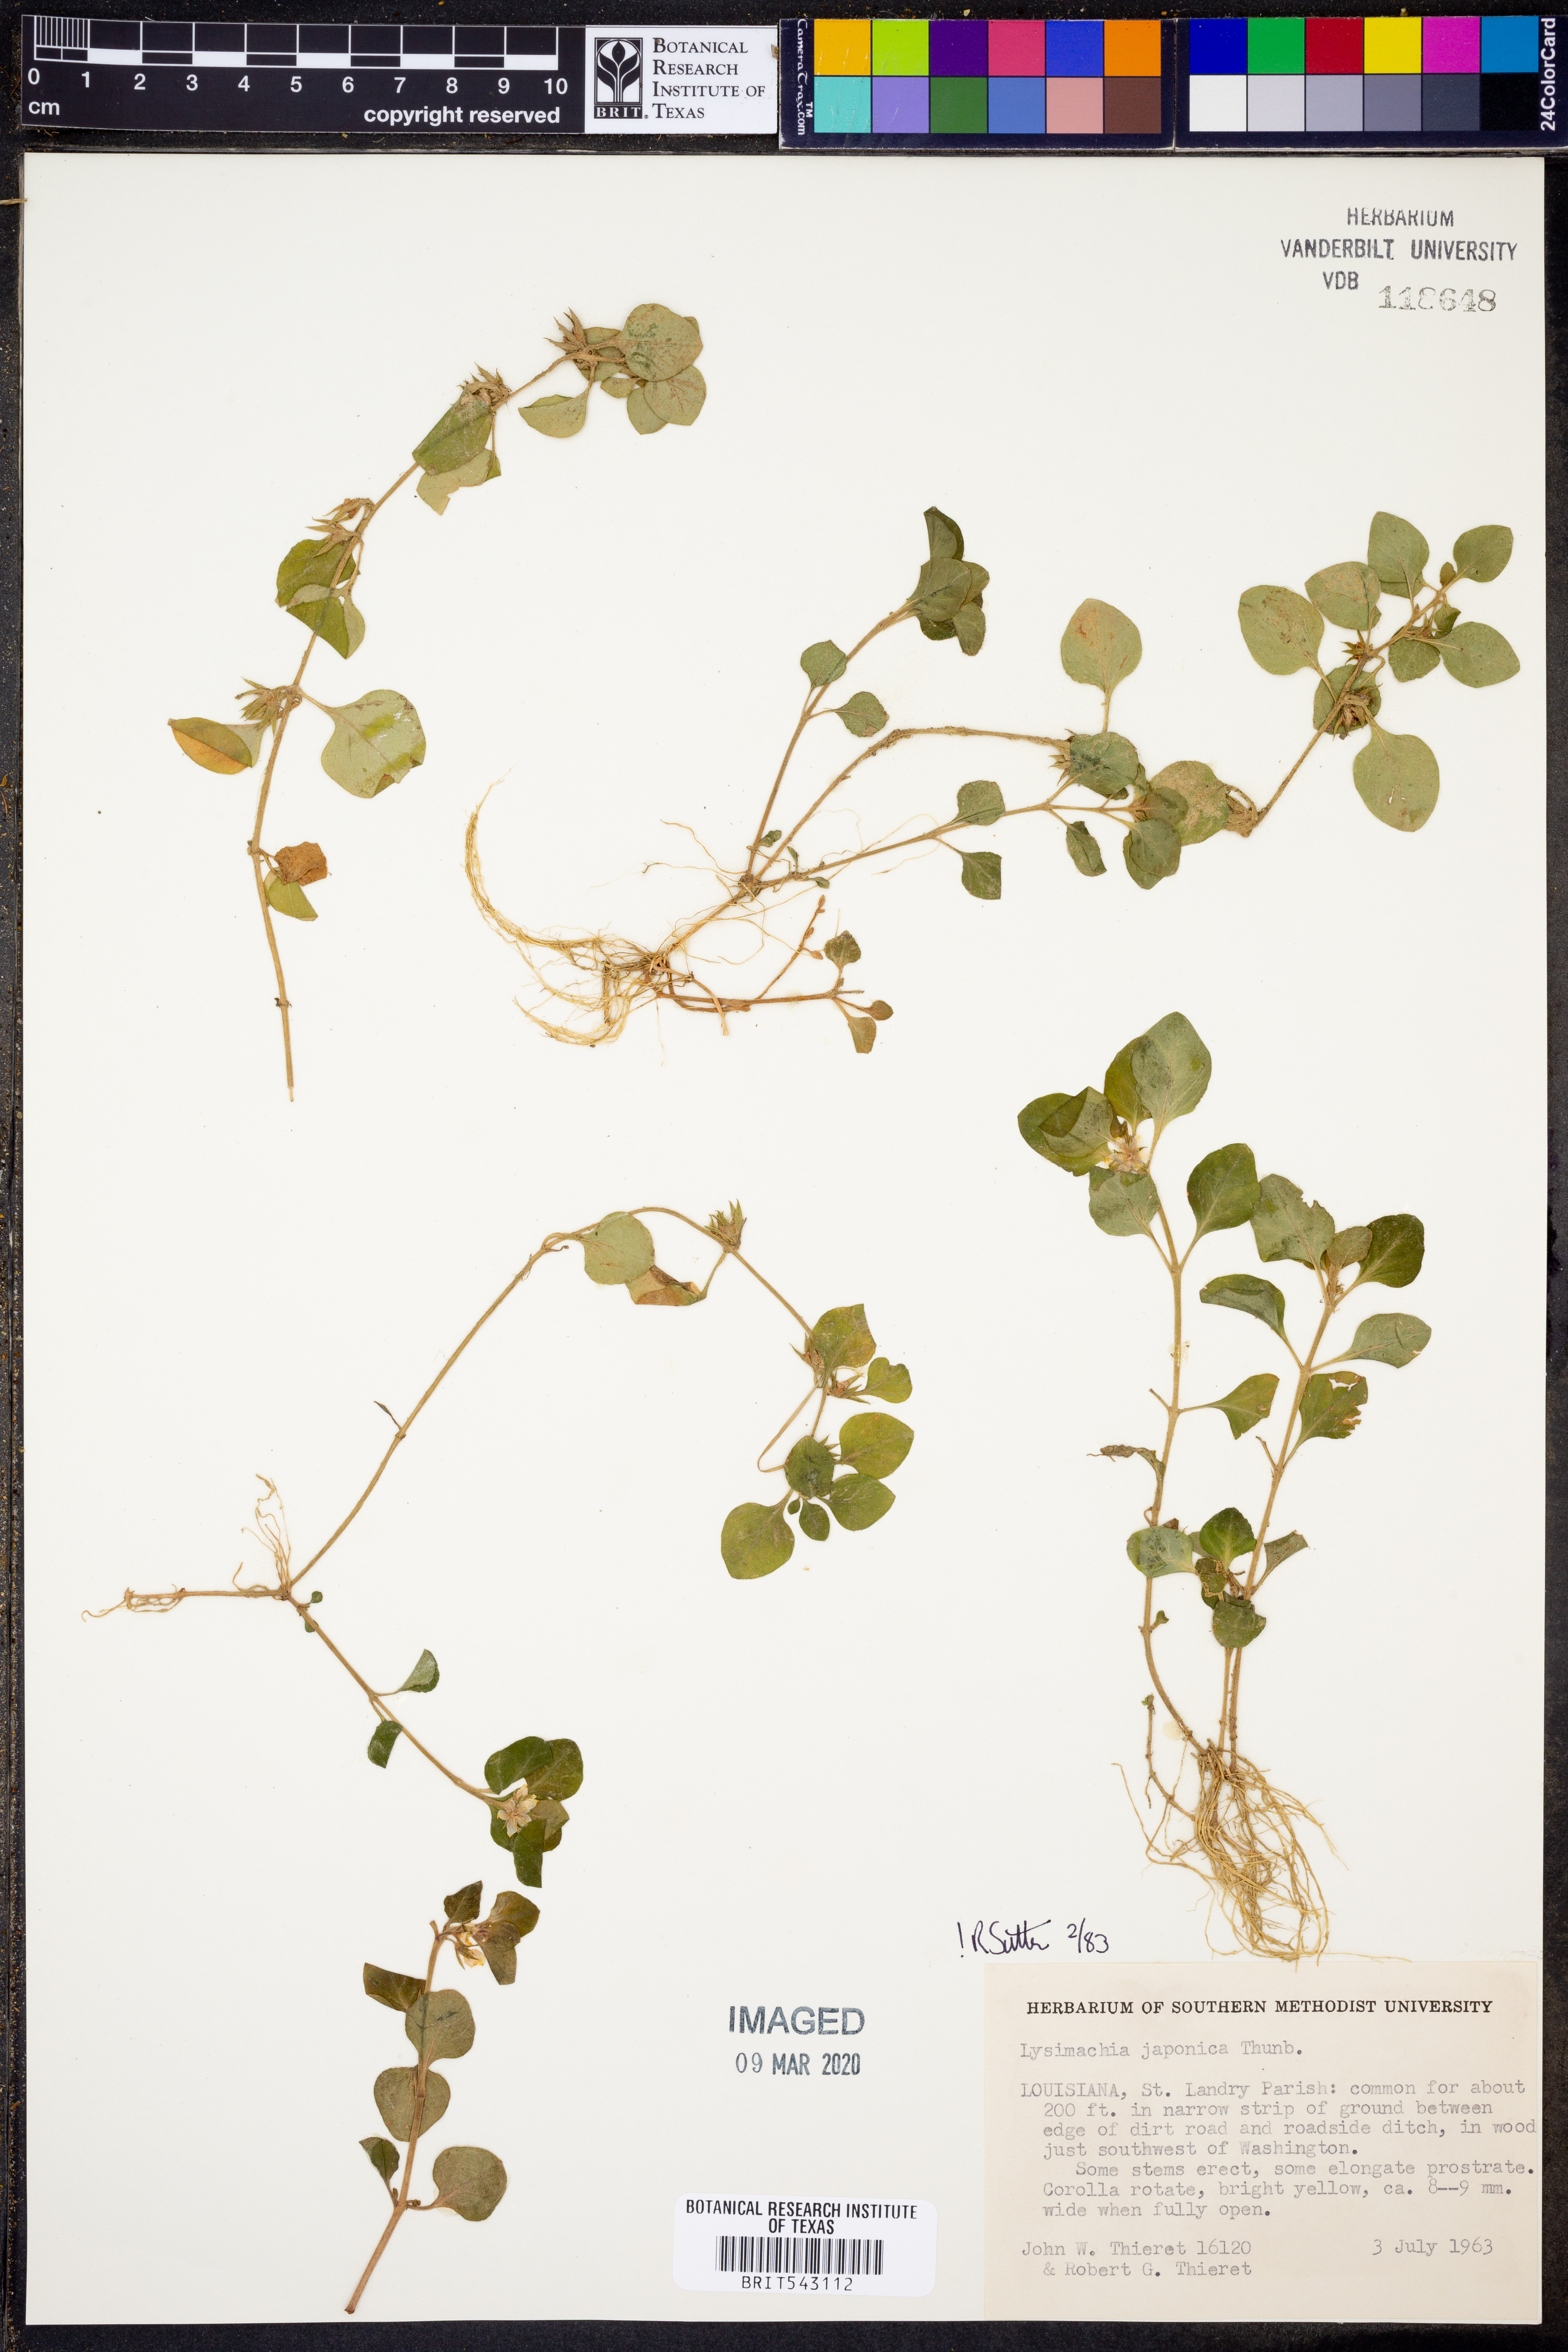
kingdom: Plantae
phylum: Tracheophyta
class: Magnoliopsida
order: Ericales
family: Primulaceae
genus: Lysimachia
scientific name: Lysimachia japonica
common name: Japanese yellow loosestrife
